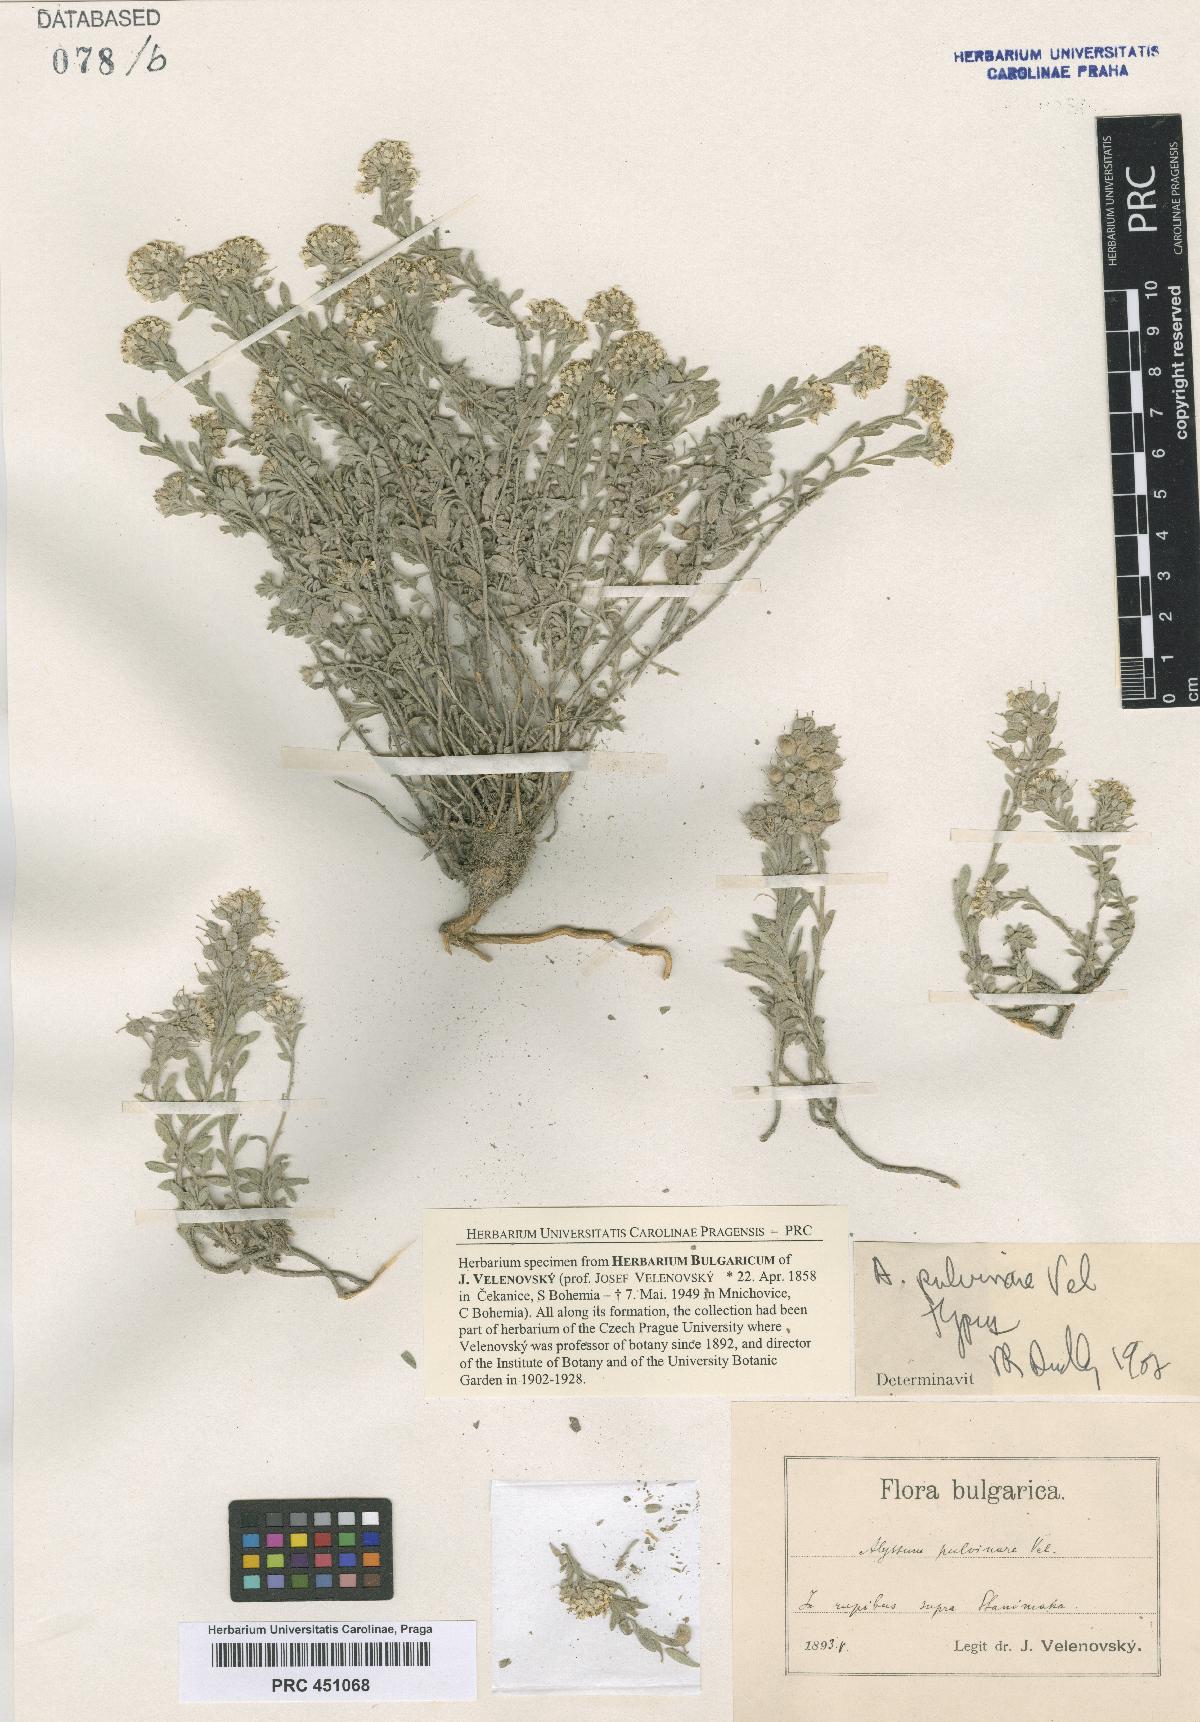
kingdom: Plantae
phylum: Tracheophyta
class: Magnoliopsida
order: Brassicales
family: Brassicaceae
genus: Alyssum
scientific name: Alyssum pulvinare
